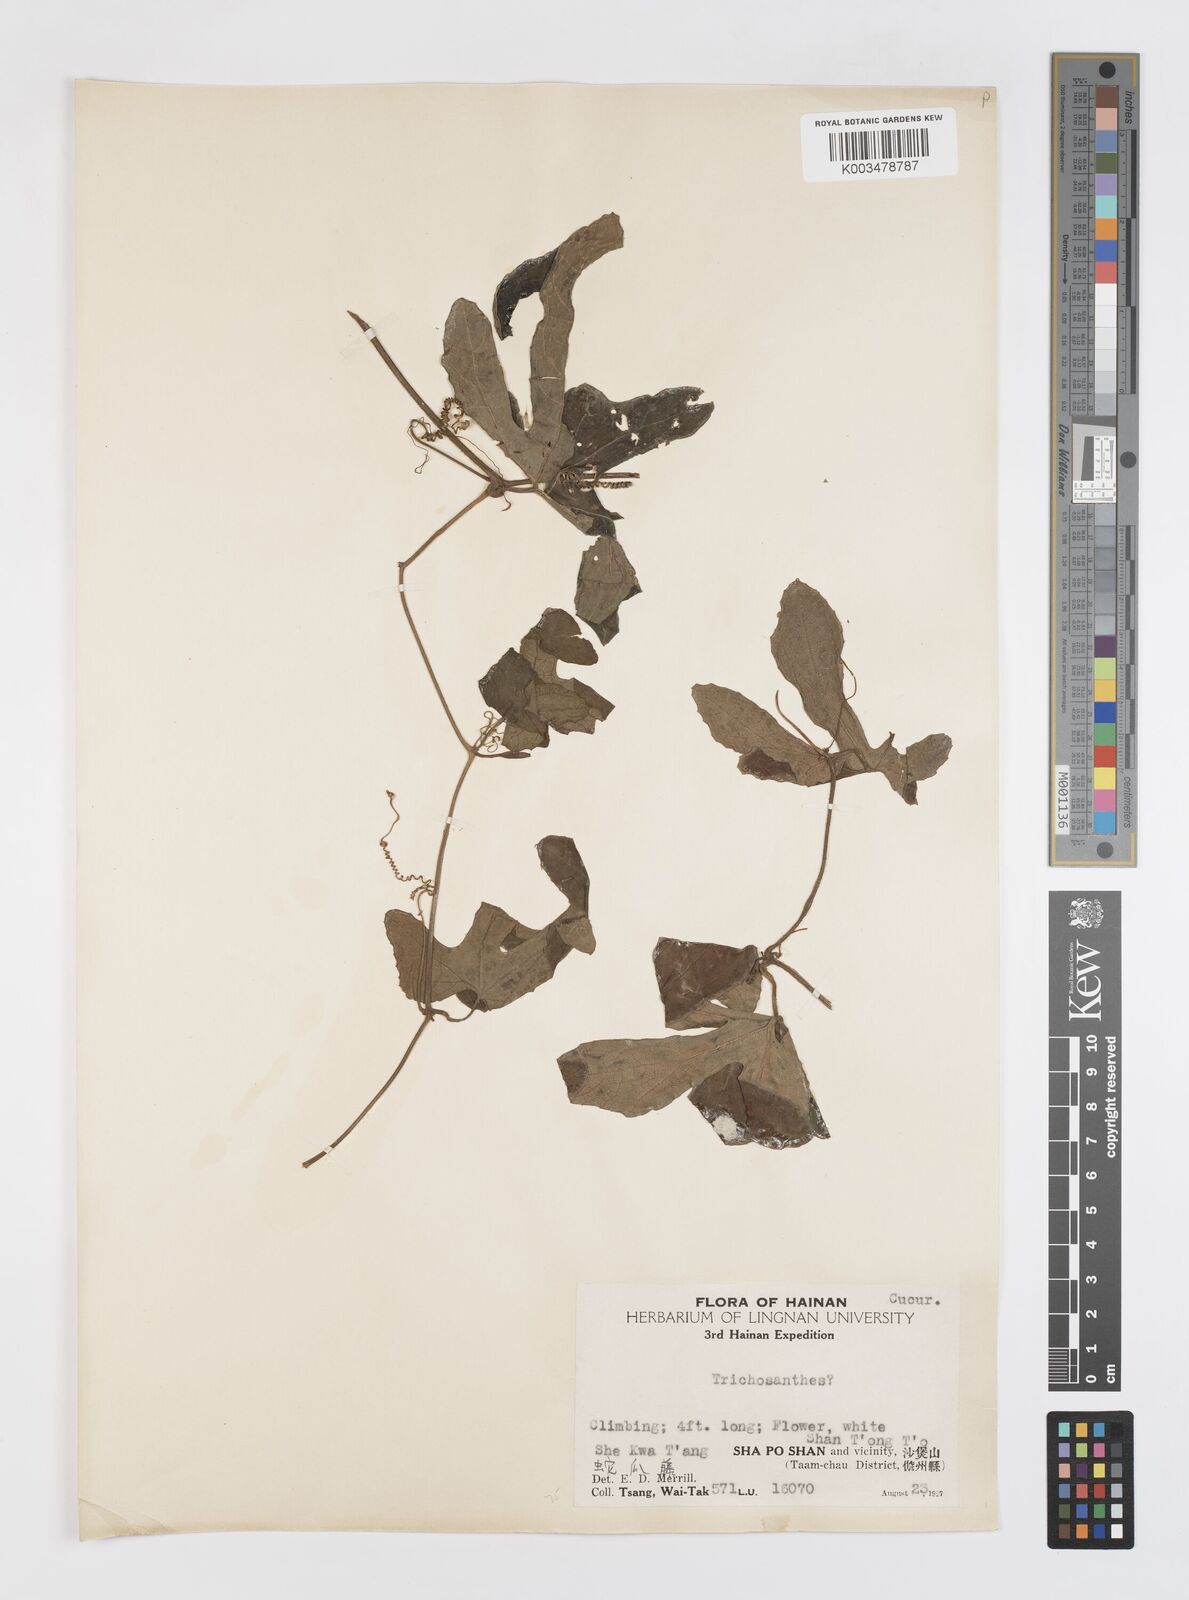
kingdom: Plantae
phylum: Tracheophyta
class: Magnoliopsida
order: Cucurbitales
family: Cucurbitaceae
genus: Trichosanthes
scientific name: Trichosanthes
